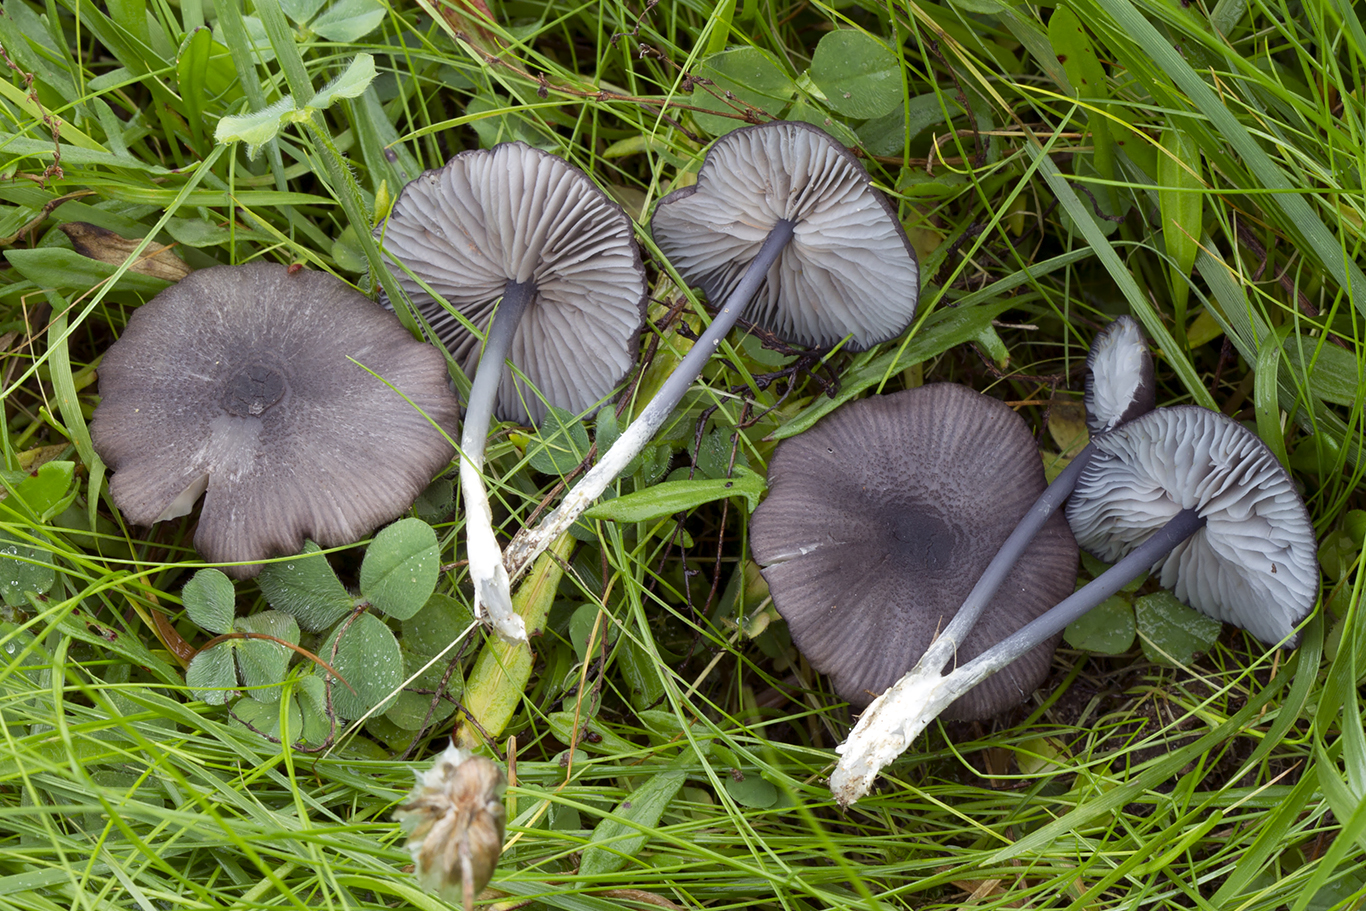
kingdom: Fungi
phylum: Basidiomycota
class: Agaricomycetes
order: Agaricales
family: Entolomataceae
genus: Entoloma
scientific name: Entoloma
